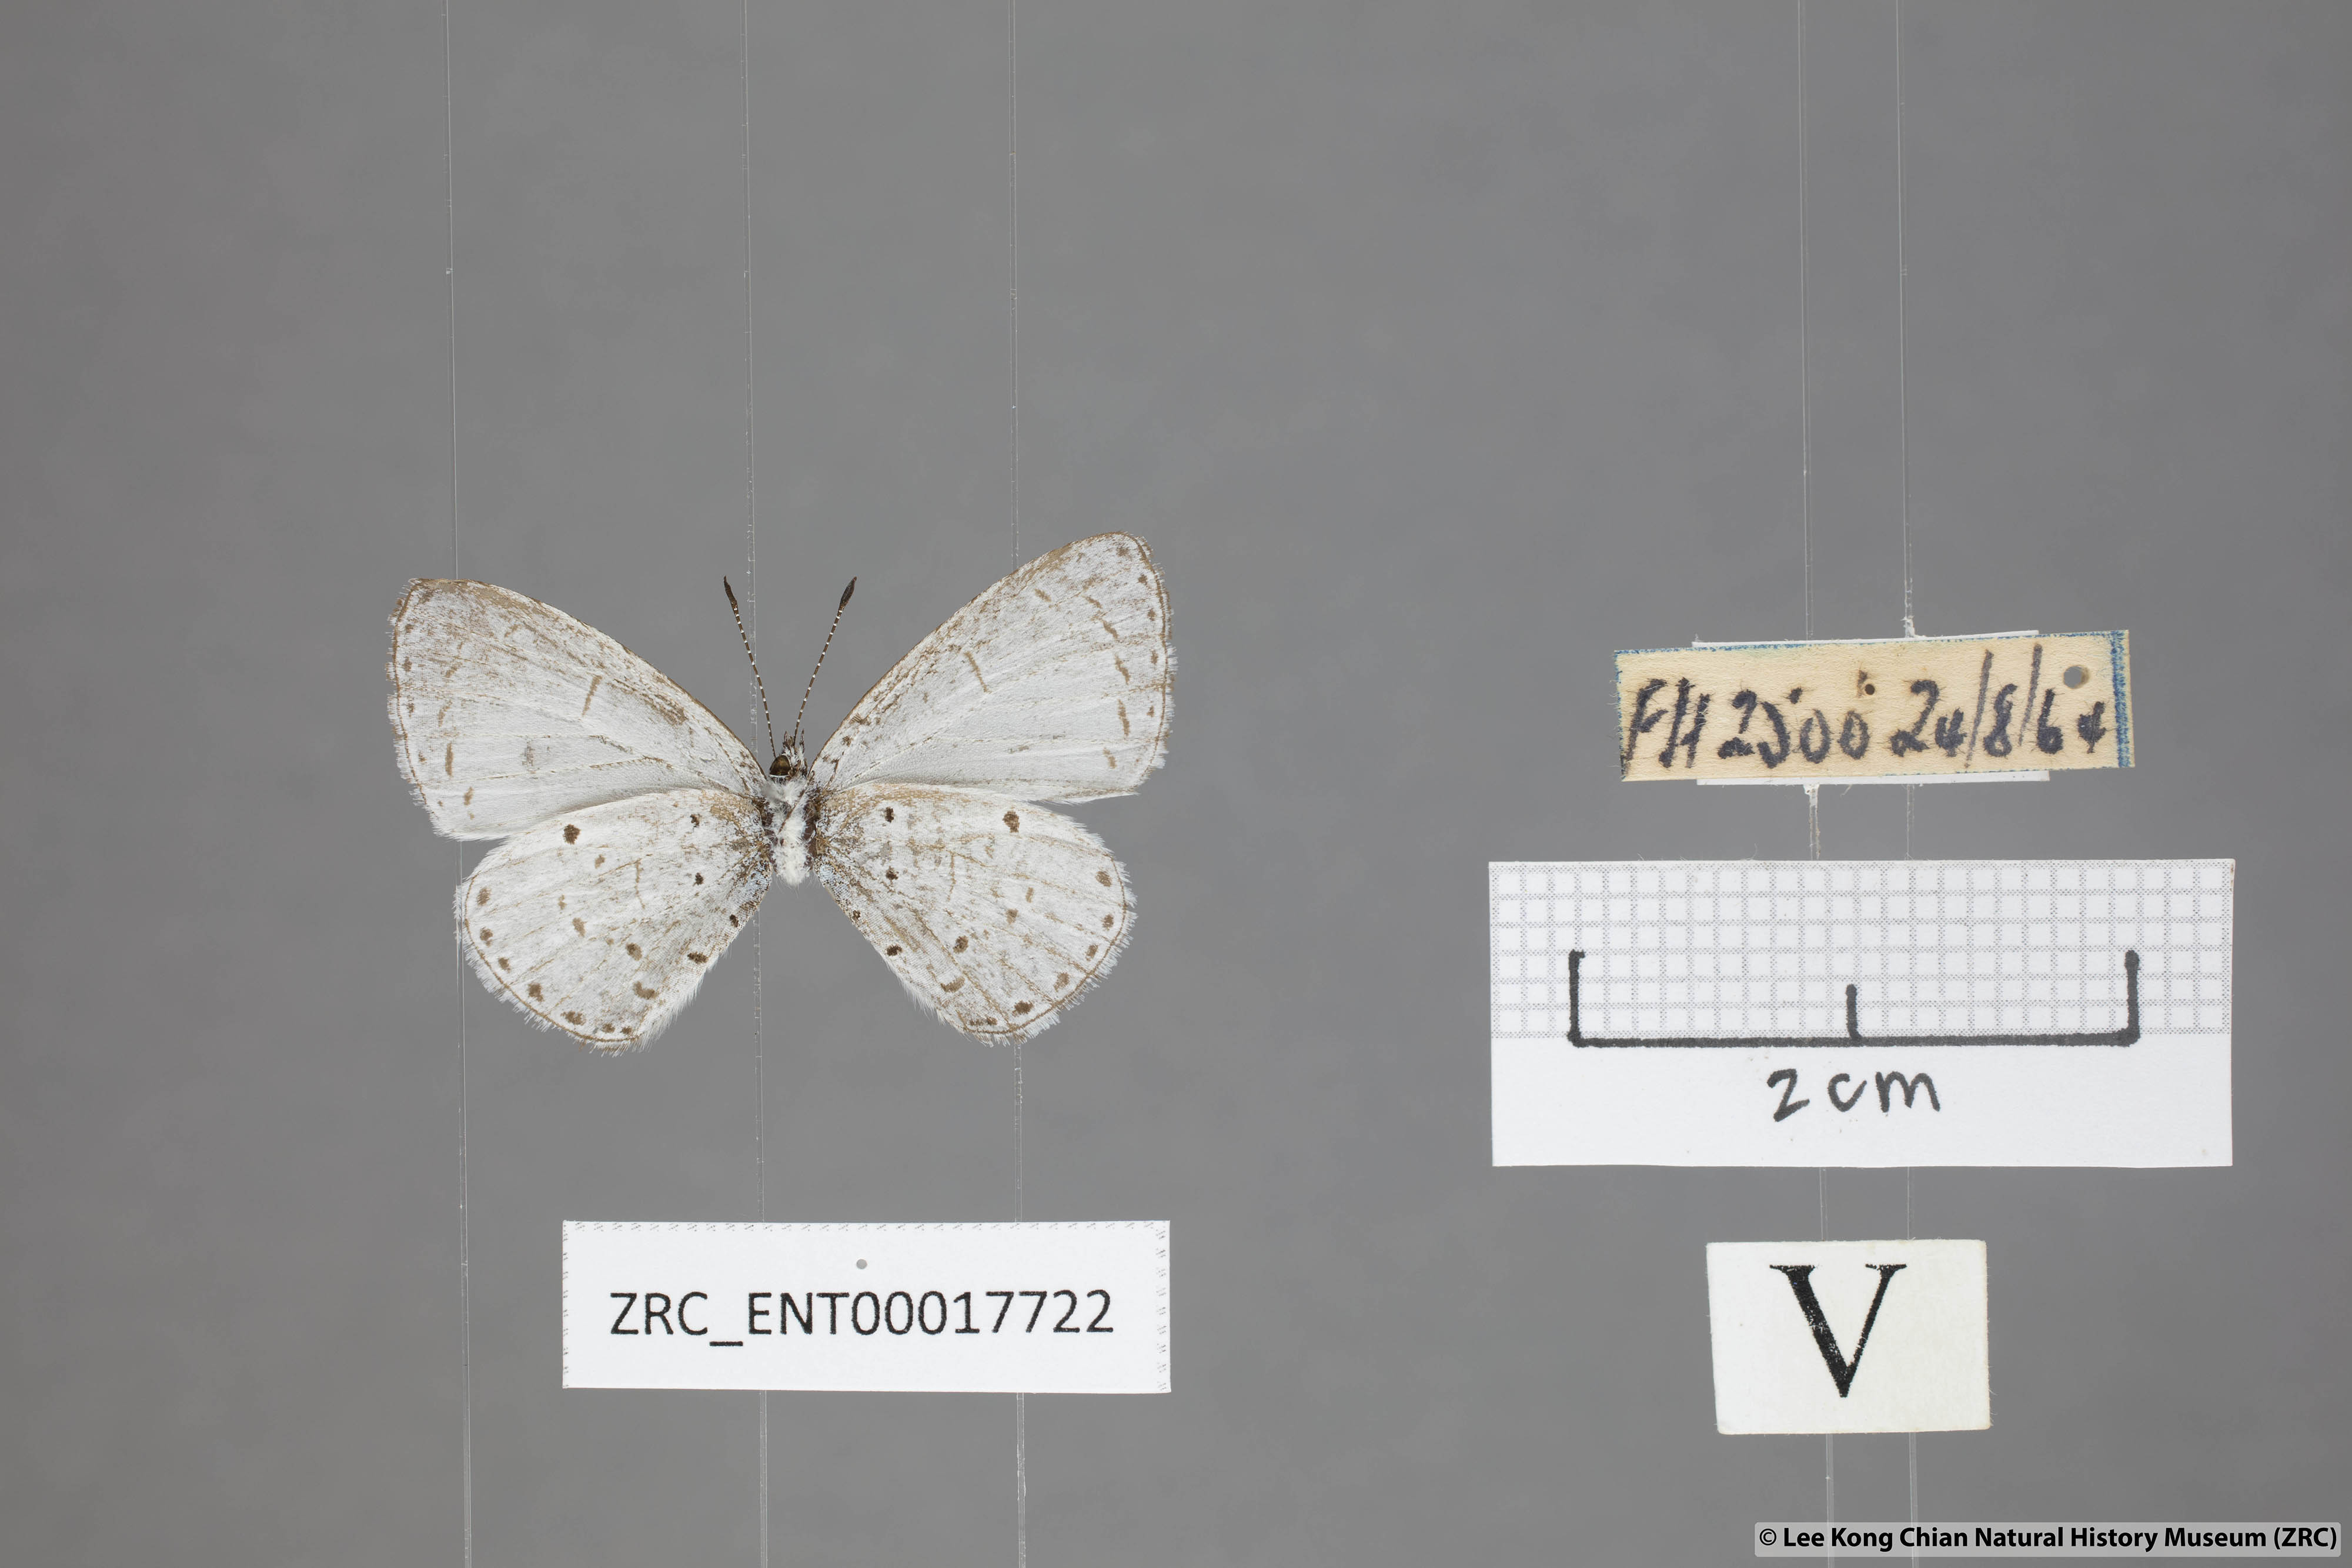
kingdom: Animalia
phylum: Arthropoda
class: Insecta
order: Lepidoptera
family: Lycaenidae
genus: Udara
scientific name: Udara
